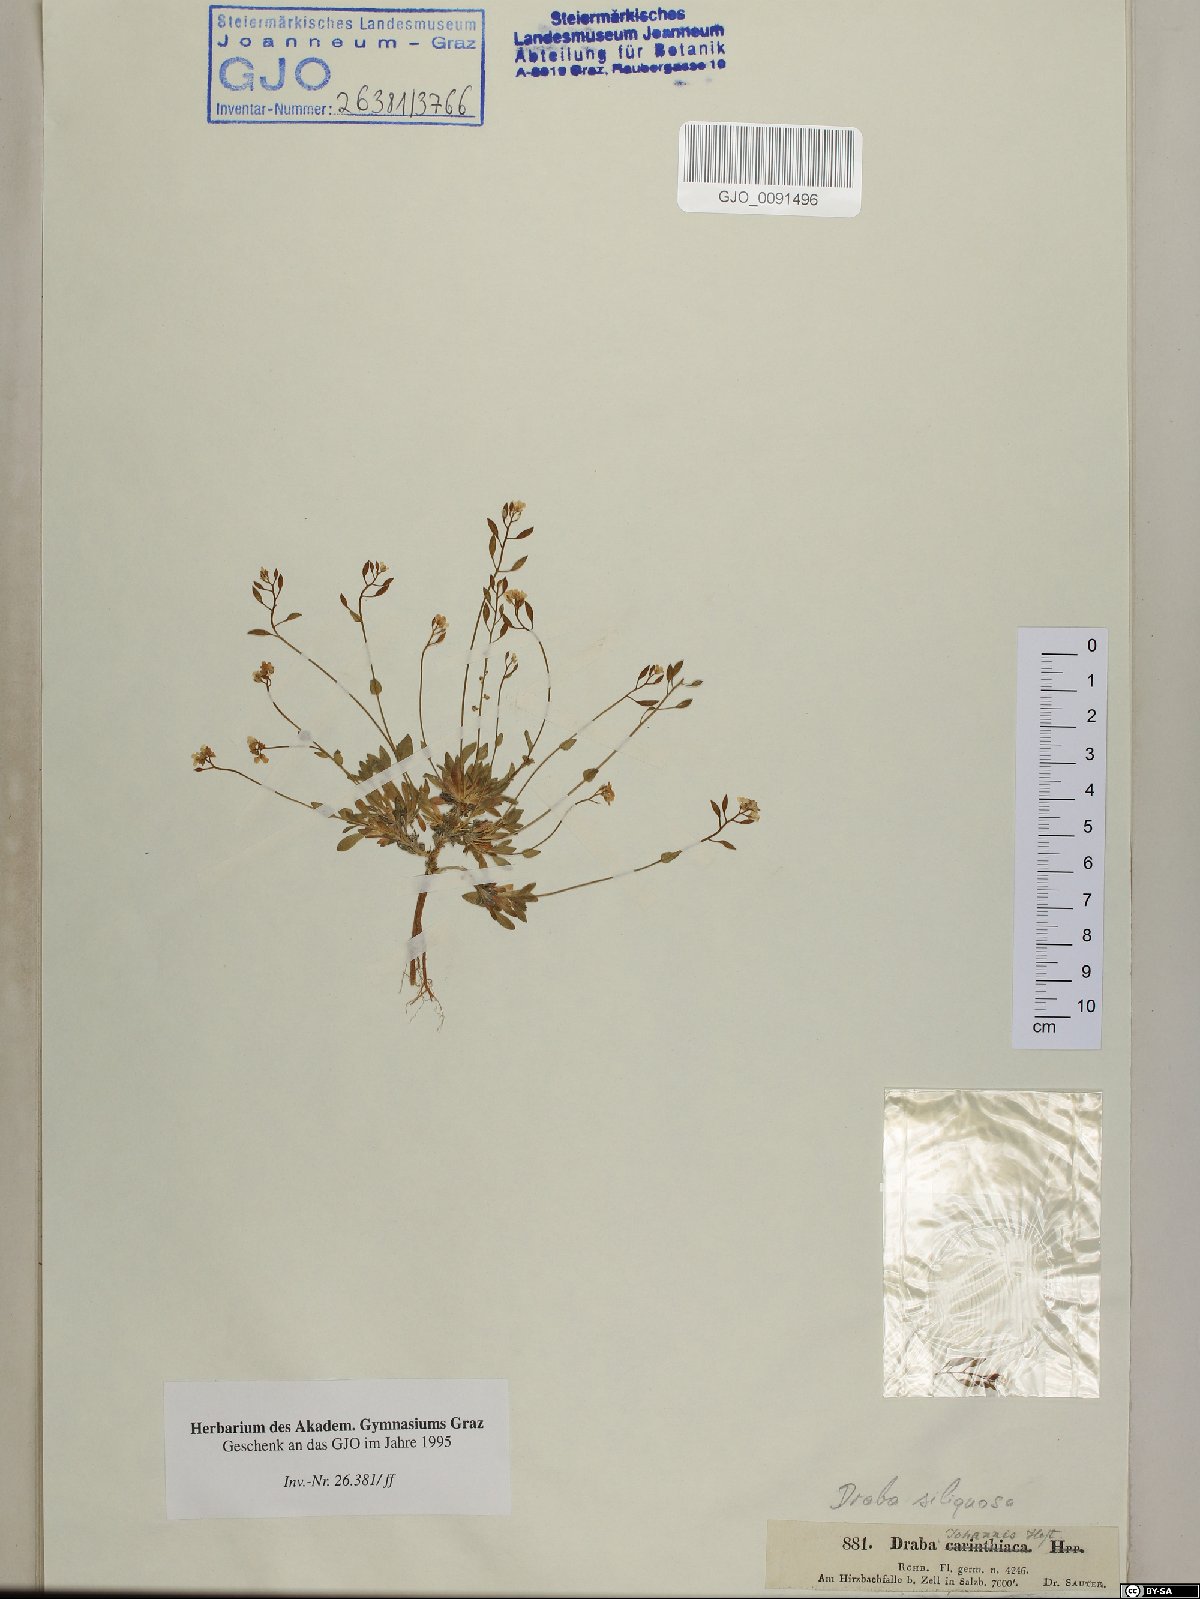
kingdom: Plantae
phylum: Tracheophyta
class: Magnoliopsida
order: Brassicales
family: Brassicaceae
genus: Draba
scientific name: Draba siliquosa
